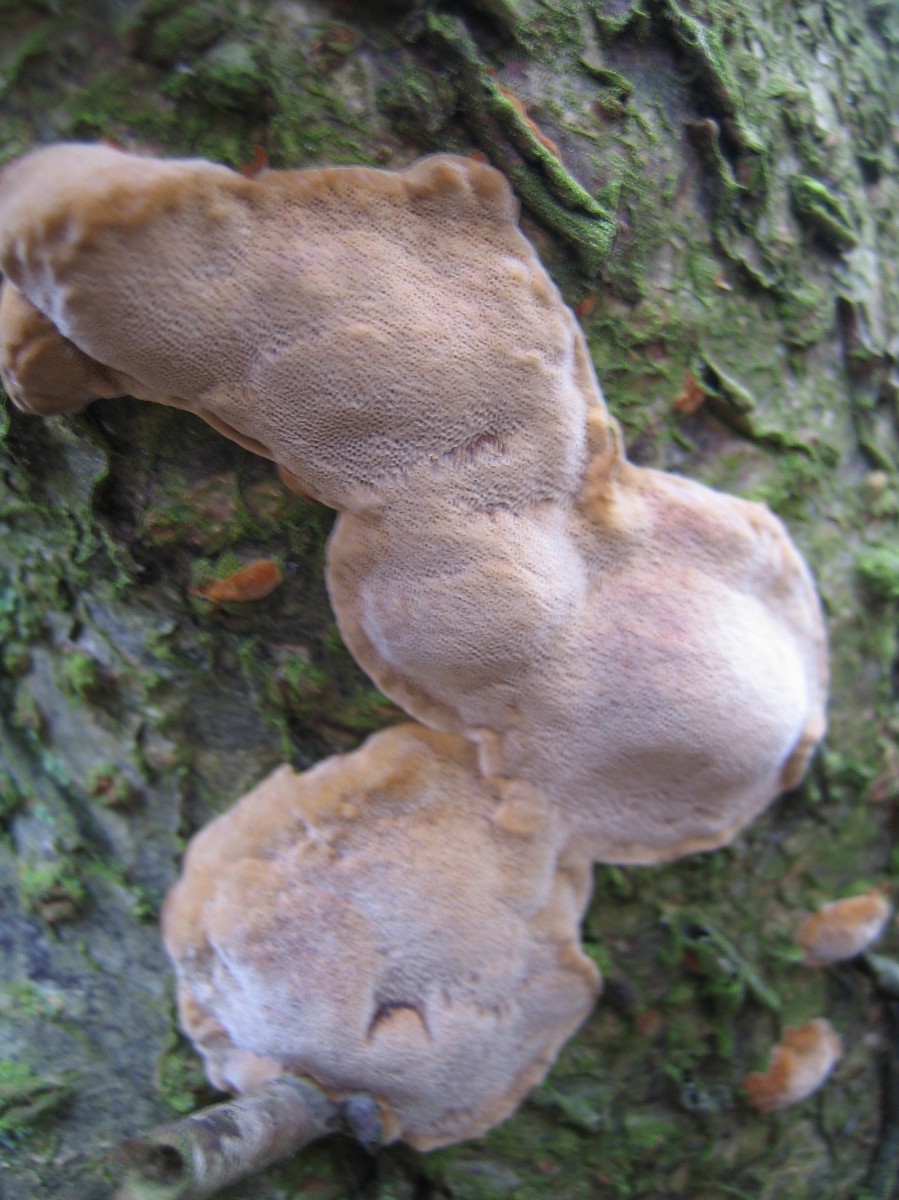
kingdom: Fungi
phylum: Basidiomycota
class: Agaricomycetes
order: Hymenochaetales
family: Hymenochaetaceae
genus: Phellinus
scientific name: Phellinus pomaceus
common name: blomme-ildporesvamp
